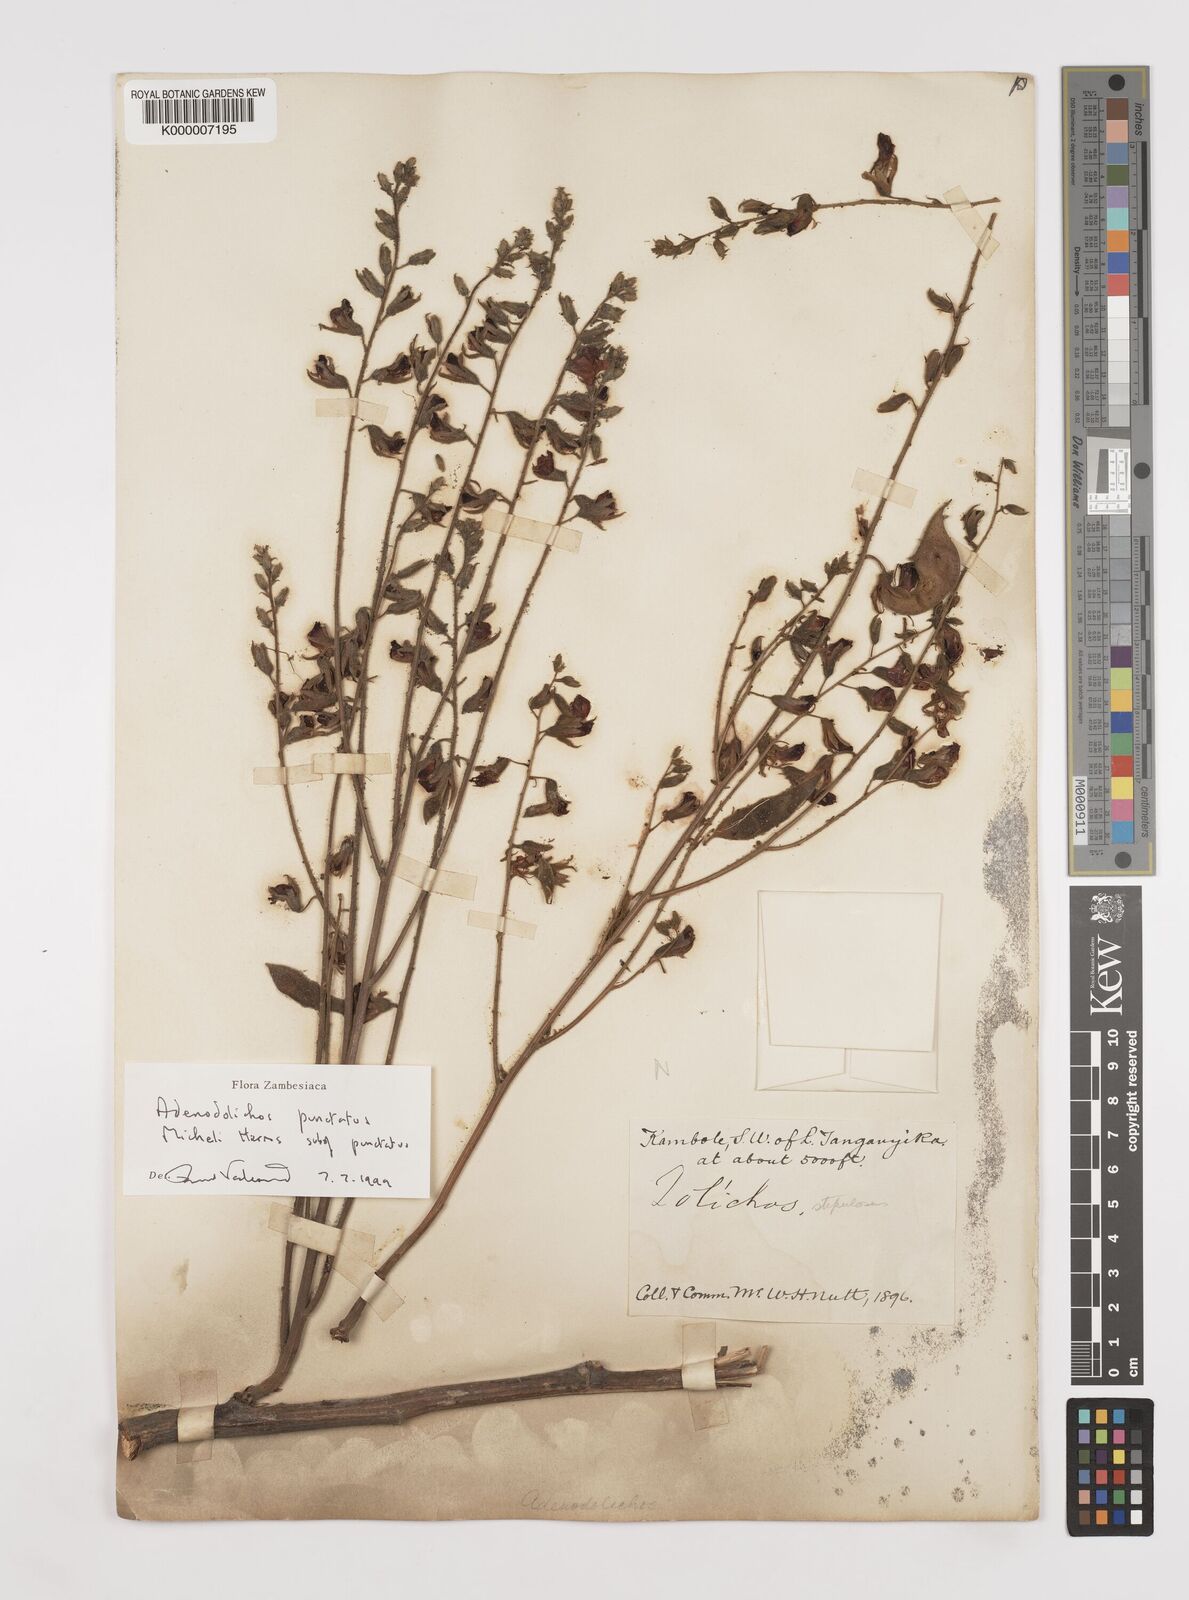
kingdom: Plantae
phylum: Tracheophyta
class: Magnoliopsida
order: Fabales
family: Fabaceae
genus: Adenodolichos
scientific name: Adenodolichos punctatus
